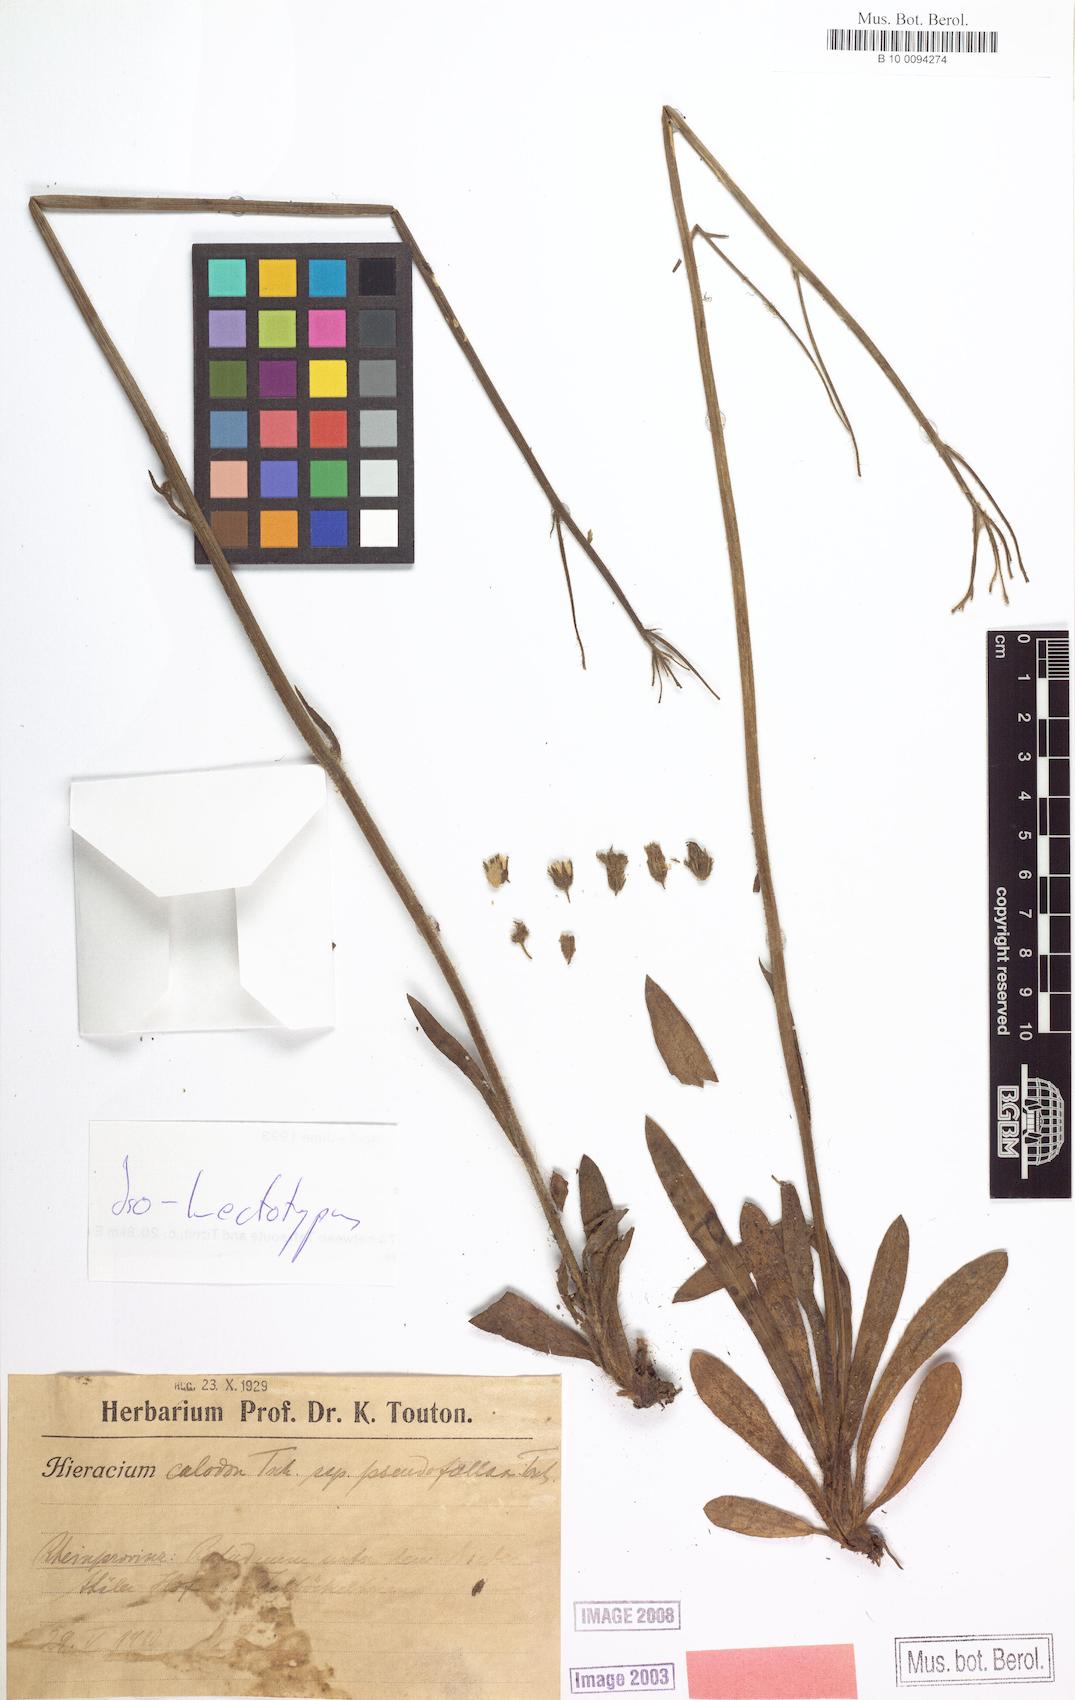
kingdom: Plantae
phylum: Tracheophyta
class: Magnoliopsida
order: Asterales
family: Asteraceae
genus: Pilosella
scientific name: Pilosella calodon
